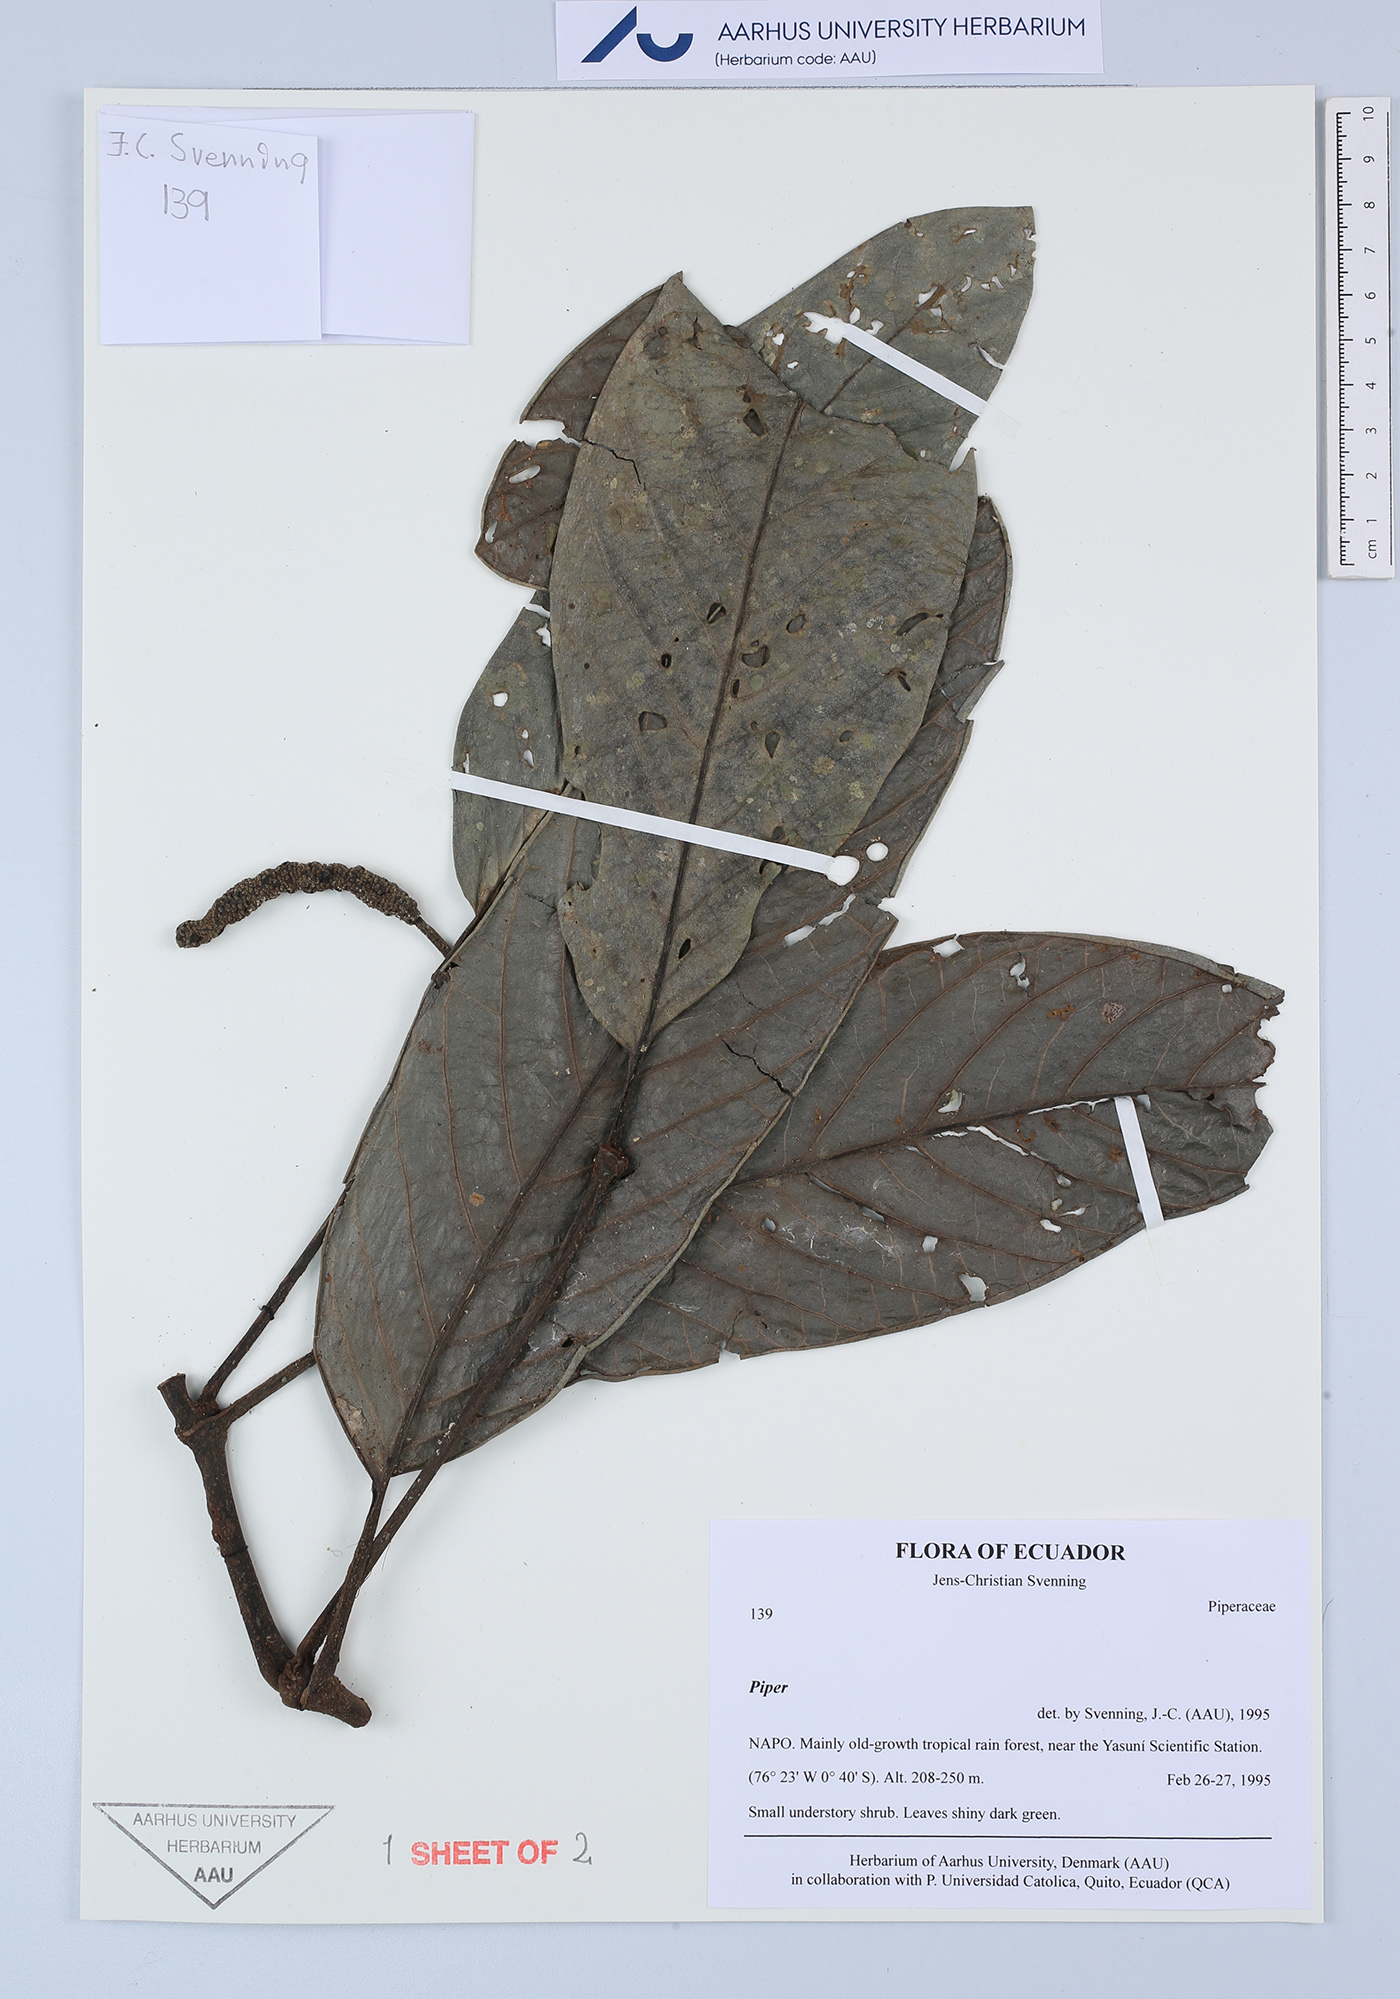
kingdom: Plantae
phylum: Tracheophyta
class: Magnoliopsida
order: Piperales
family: Piperaceae
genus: Piper
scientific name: Piper
